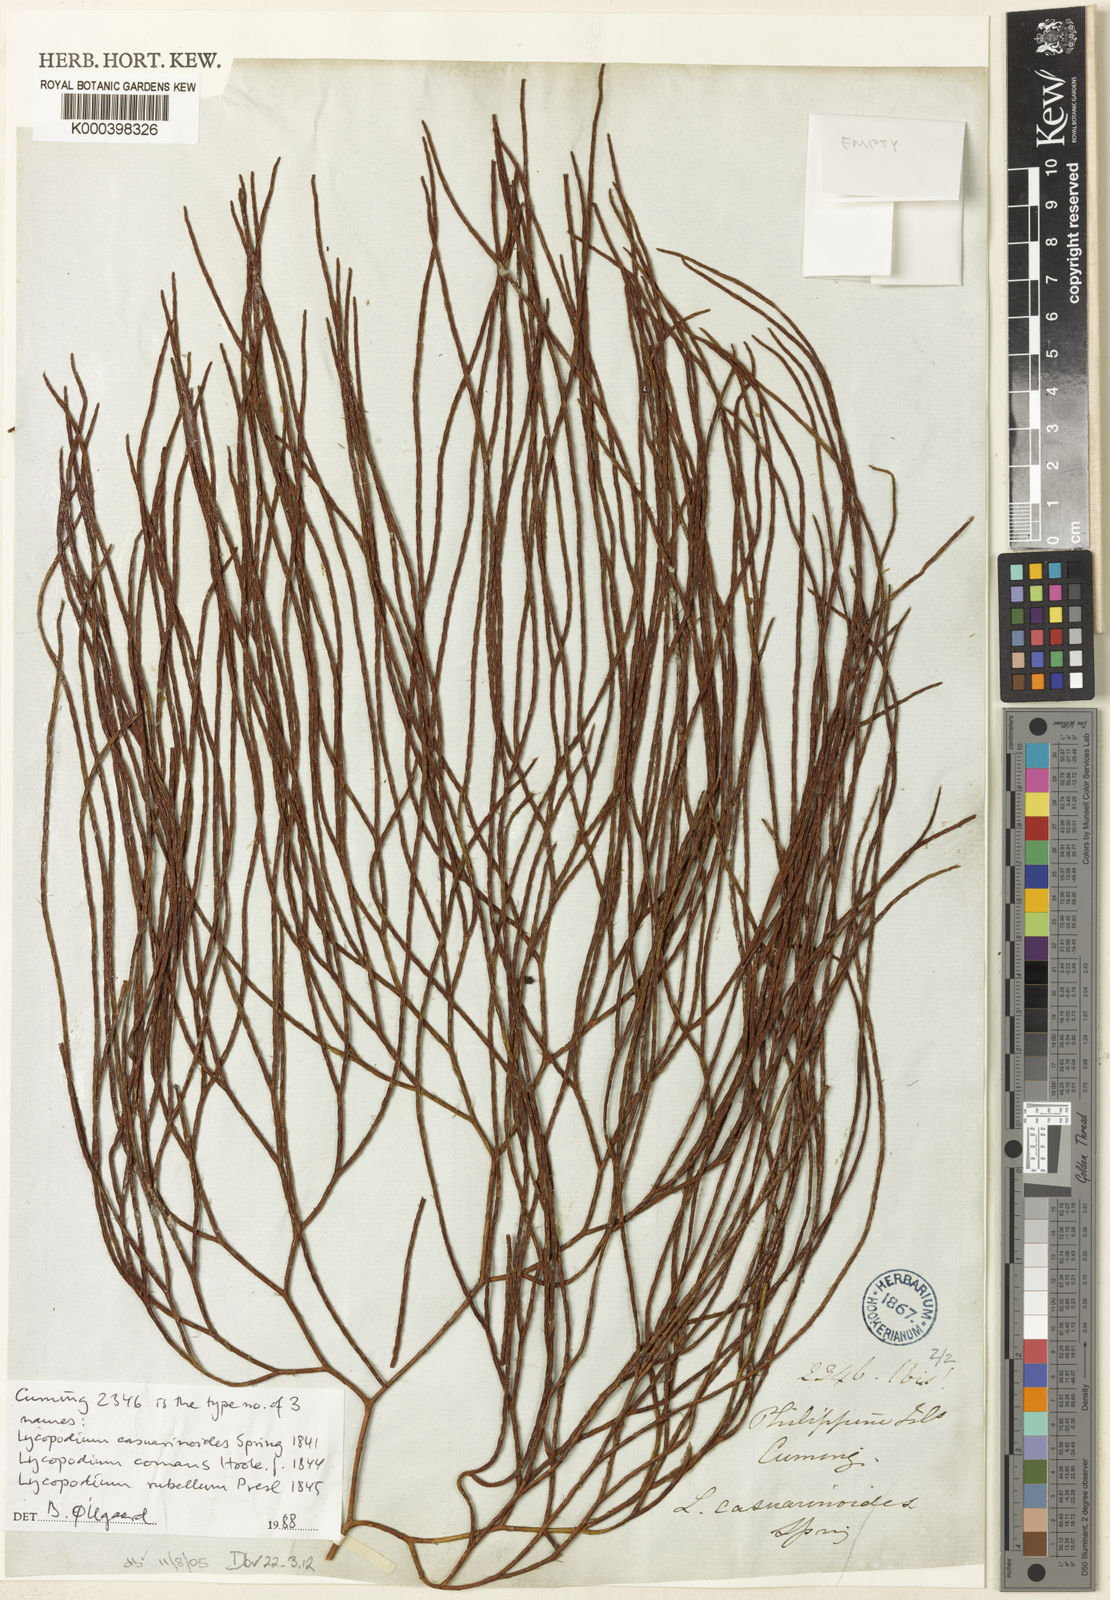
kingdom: Plantae
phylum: Tracheophyta
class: Lycopodiopsida
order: Lycopodiales
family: Lycopodiaceae
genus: Lycopodiastrum
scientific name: Lycopodiastrum casuarinoides
